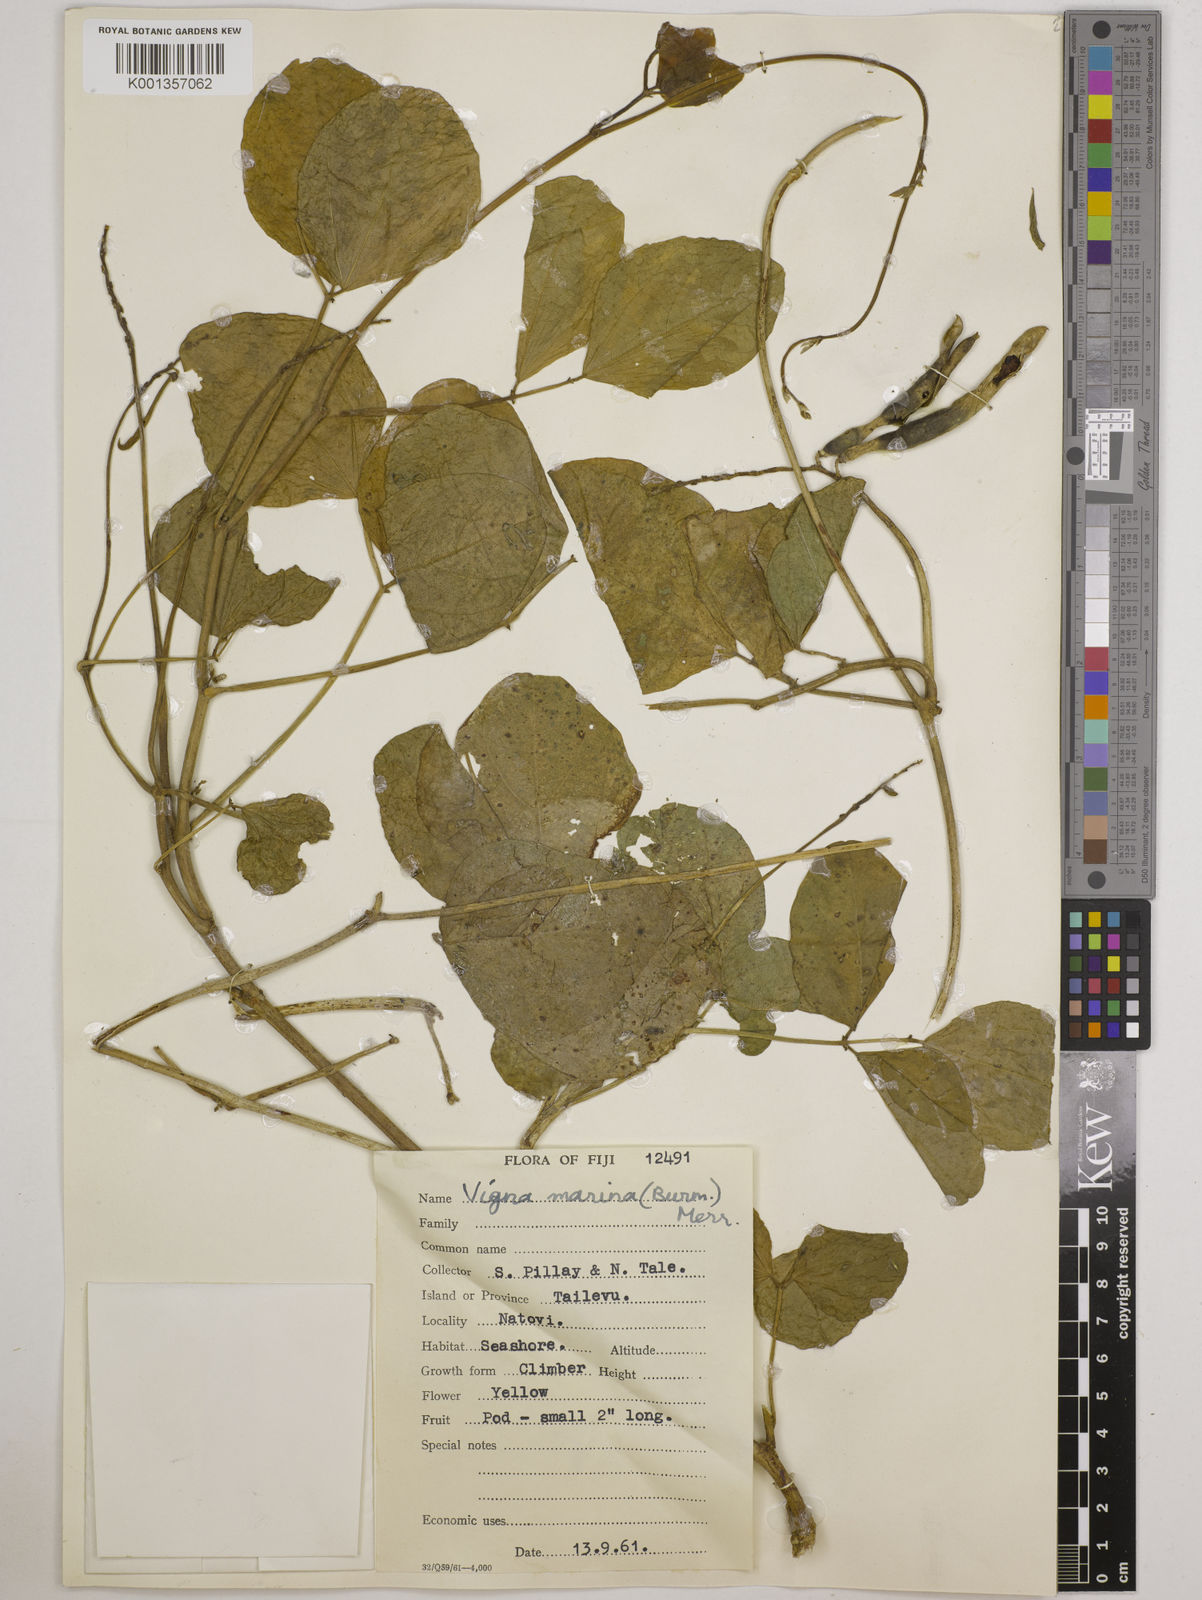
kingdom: Plantae
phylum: Tracheophyta
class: Magnoliopsida
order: Fabales
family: Fabaceae
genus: Vigna
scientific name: Vigna marina
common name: Dune-bean
